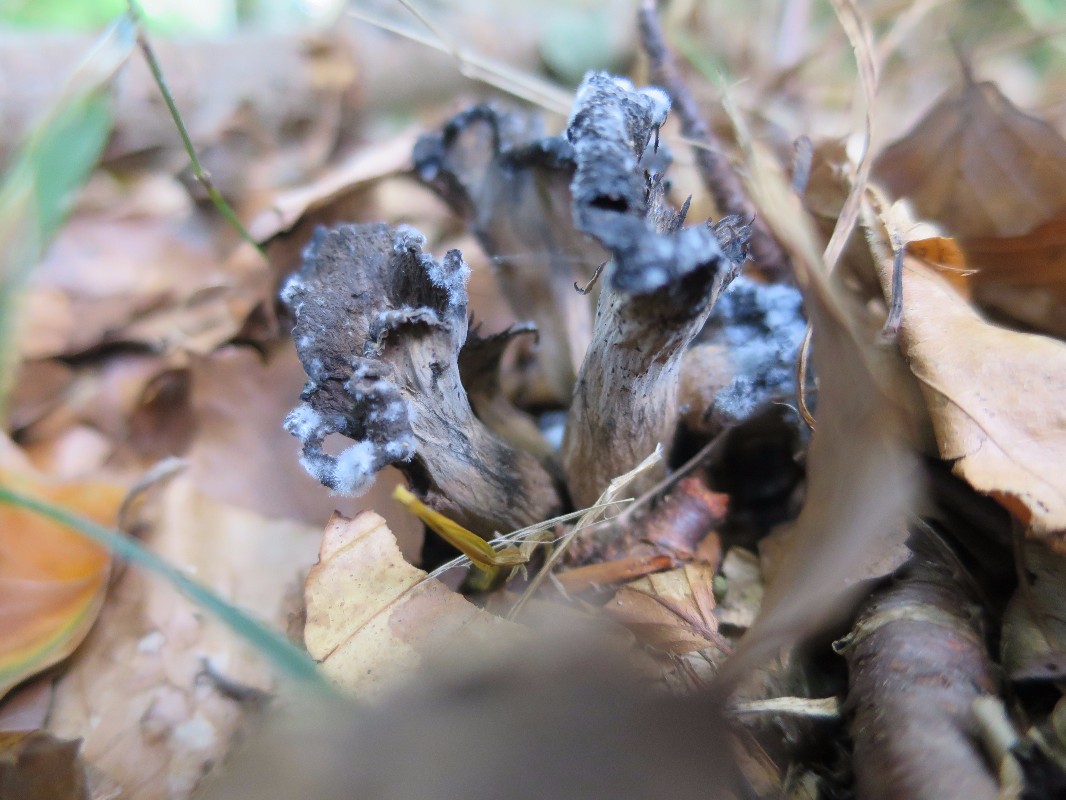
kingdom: Fungi
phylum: Basidiomycota
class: Agaricomycetes
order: Cantharellales
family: Hydnaceae
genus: Craterellus
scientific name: Craterellus cornucopioides
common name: trompetsvamp
